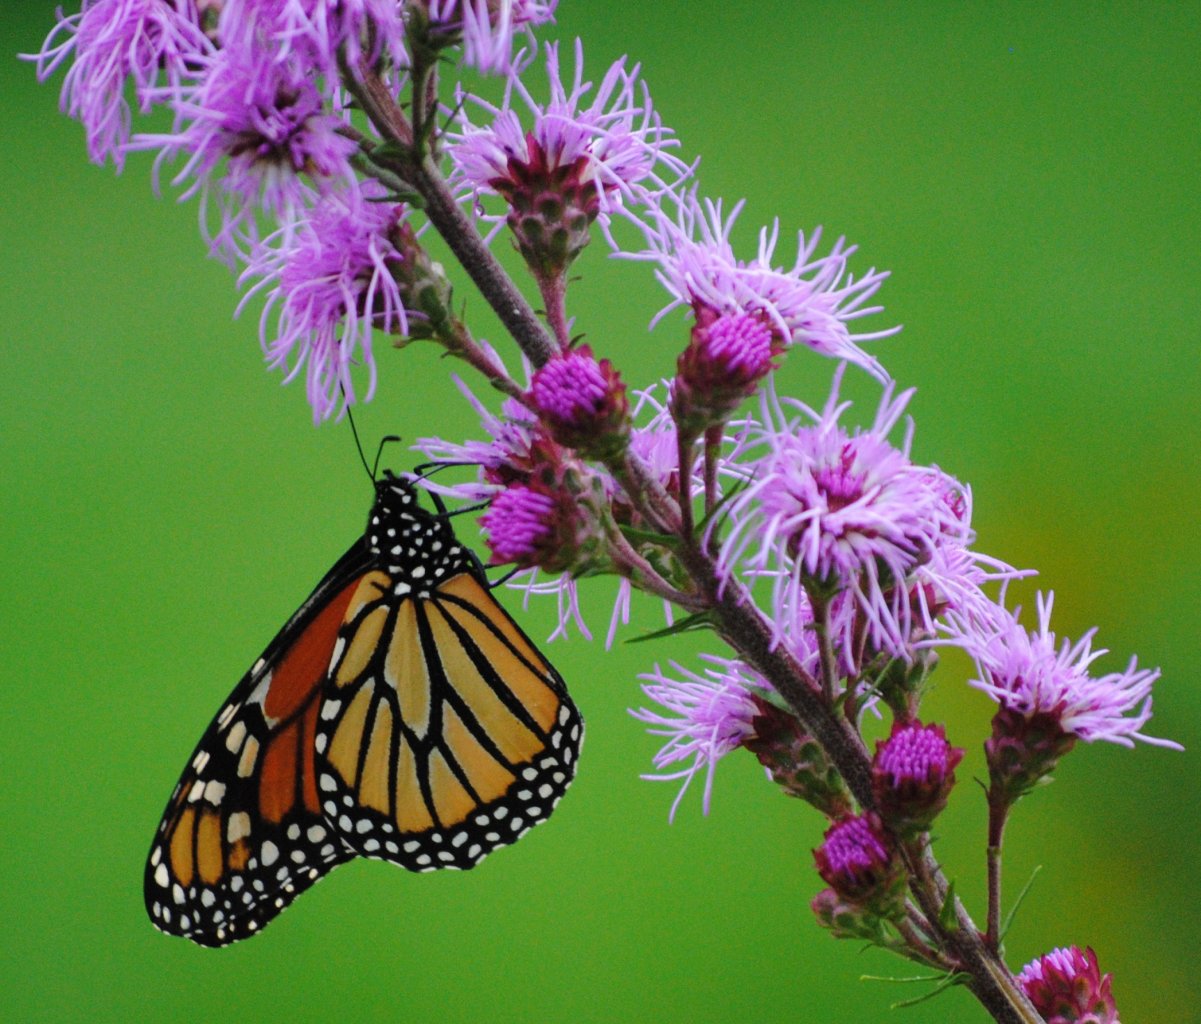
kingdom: Animalia
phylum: Arthropoda
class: Insecta
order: Lepidoptera
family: Nymphalidae
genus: Danaus
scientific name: Danaus plexippus
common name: Monarch
